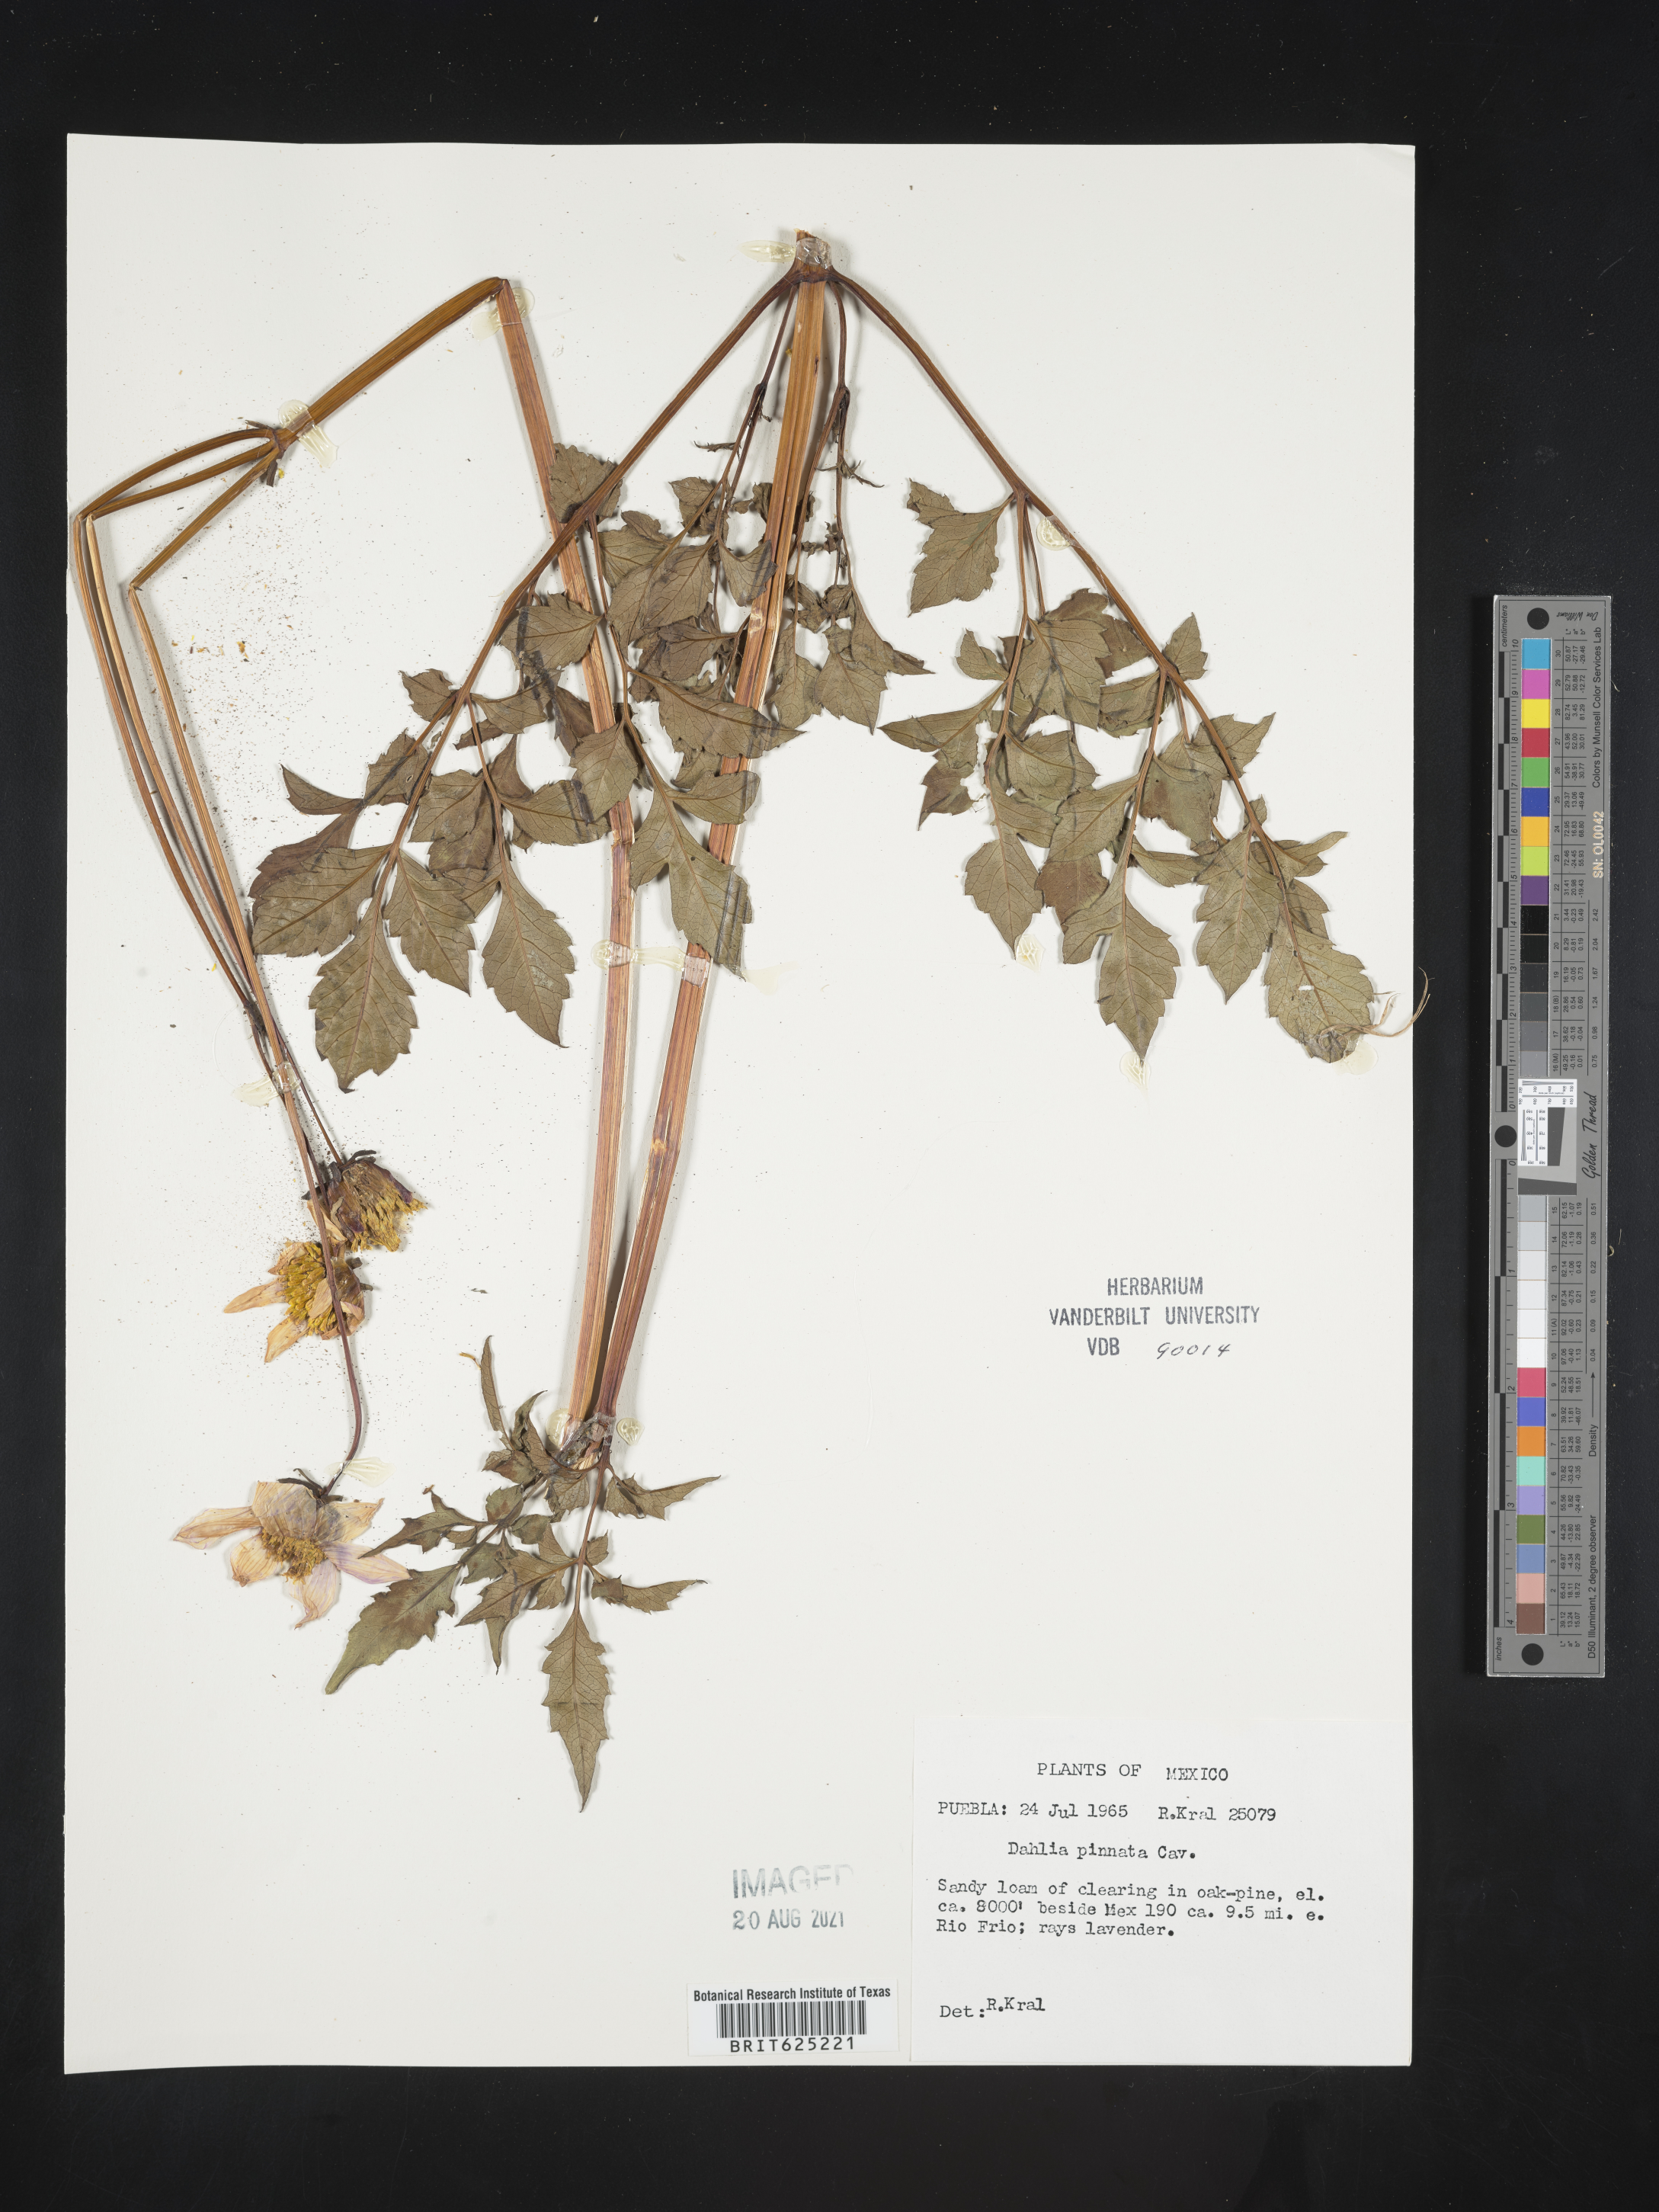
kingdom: Plantae
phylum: Tracheophyta
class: Magnoliopsida
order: Asterales
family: Asteraceae
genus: Dahlia
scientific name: Dahlia
